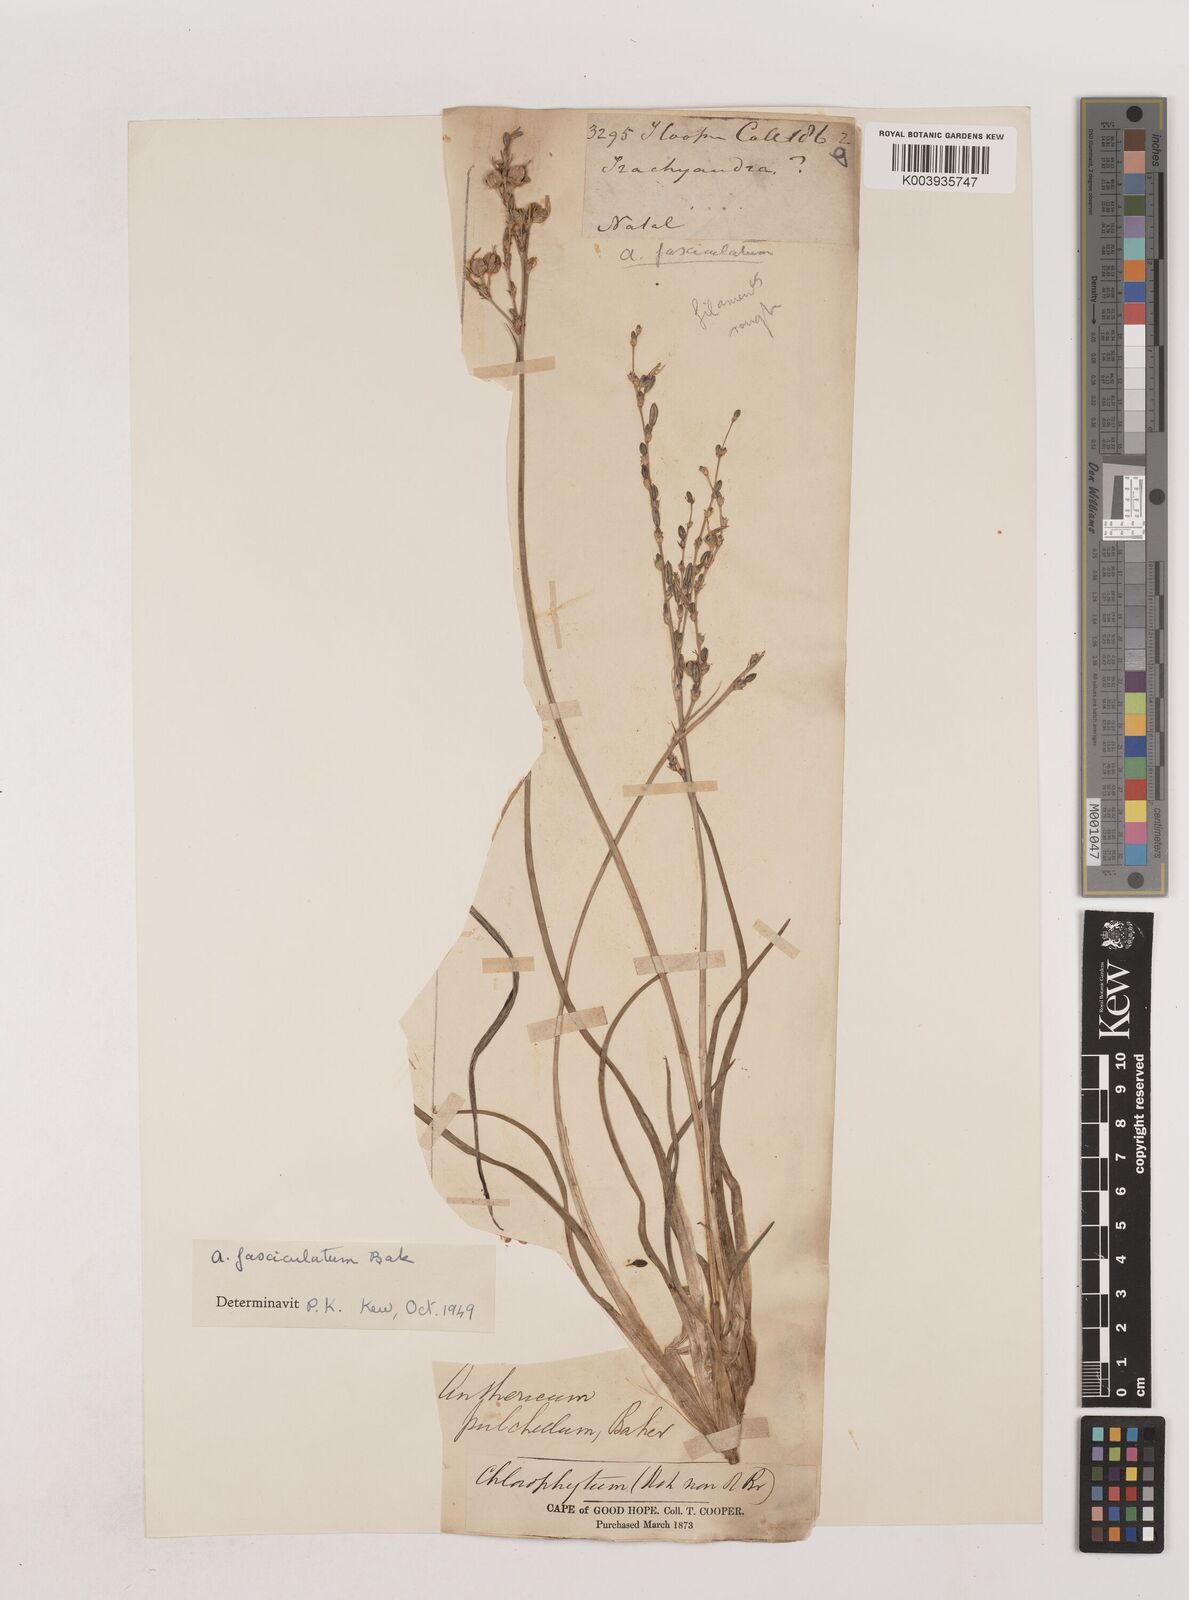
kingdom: Plantae
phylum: Tracheophyta
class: Liliopsida
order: Asparagales
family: Asparagaceae
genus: Chlorophytum
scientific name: Chlorophytum fasciculatum
